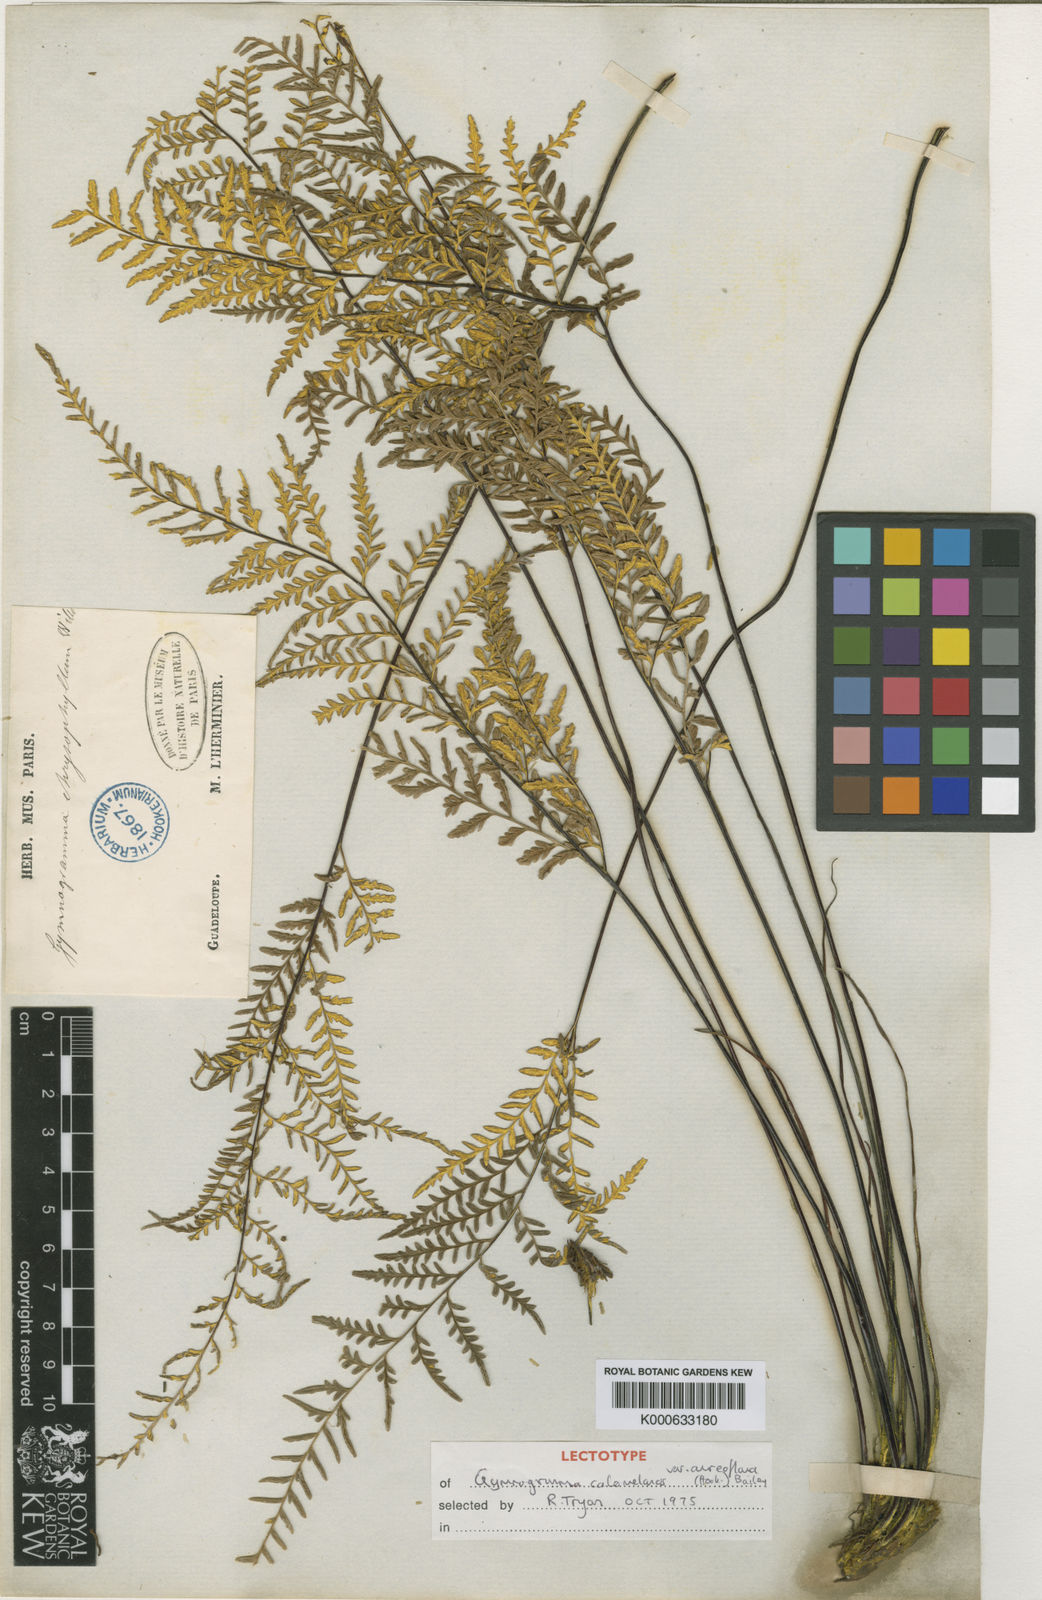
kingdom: Plantae
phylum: Tracheophyta
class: Polypodiopsida
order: Polypodiales
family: Pteridaceae
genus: Pityrogramma
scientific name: Pityrogramma chrysophylla
